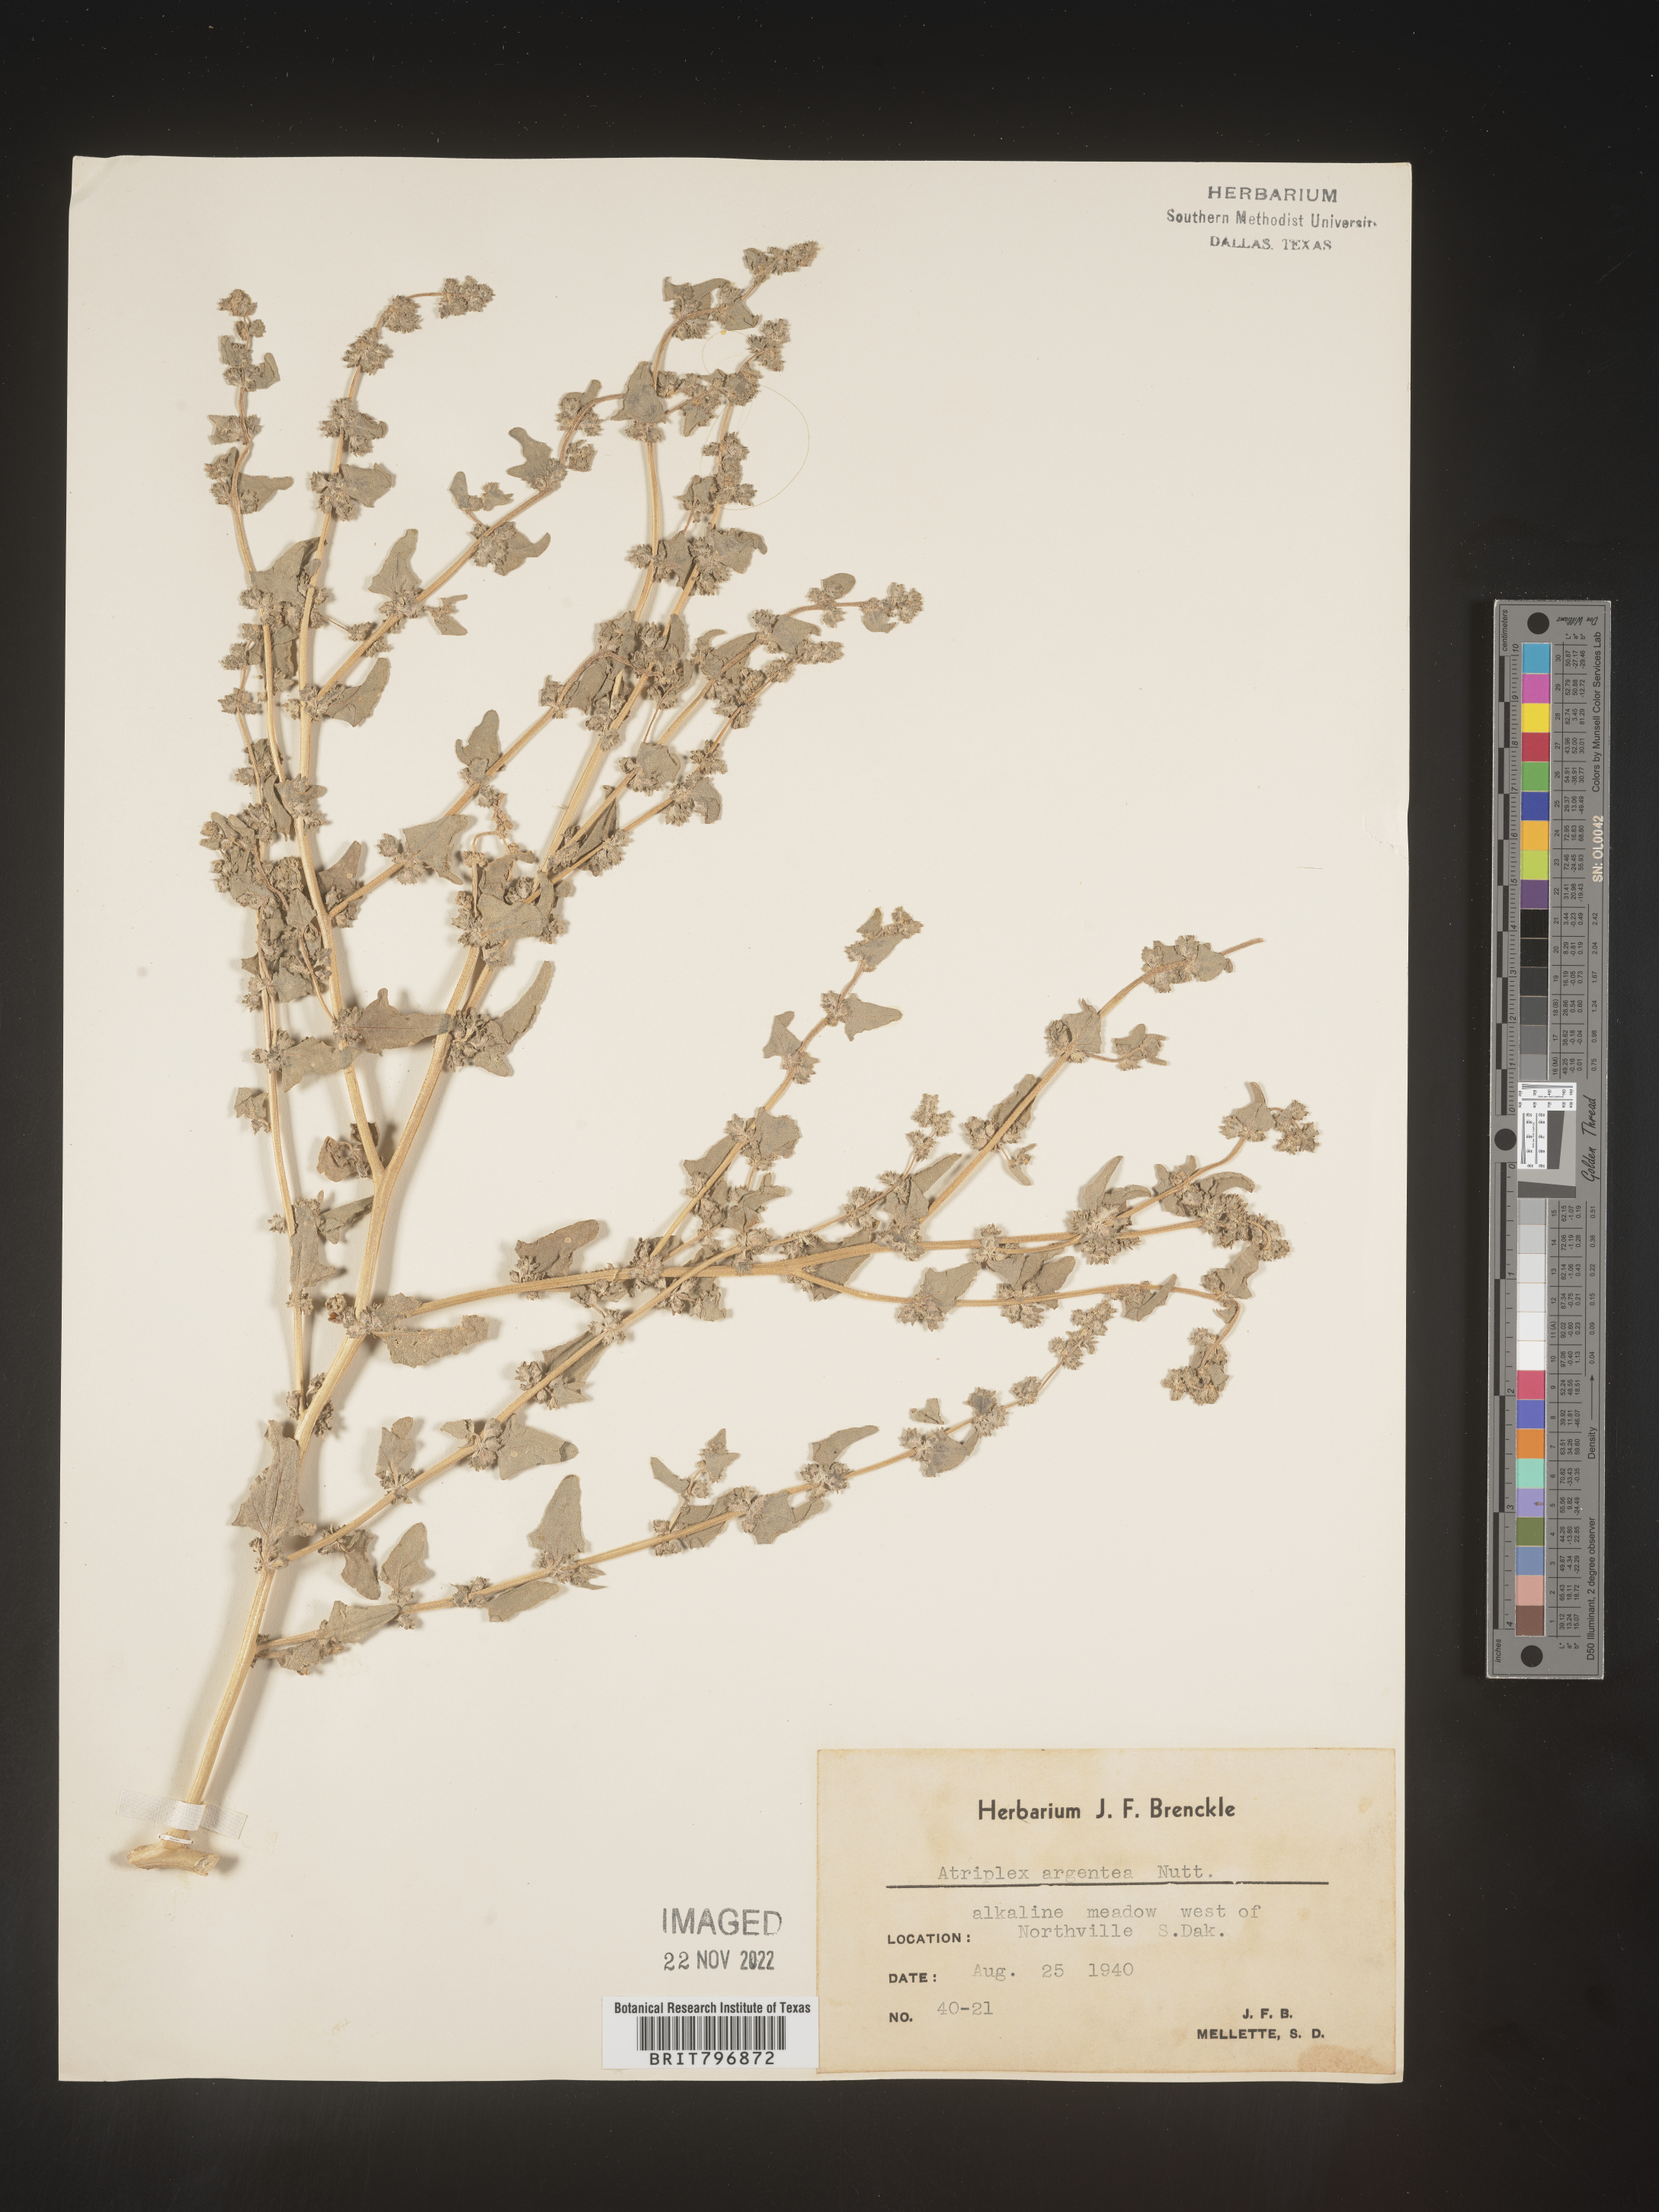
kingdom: Plantae
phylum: Tracheophyta
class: Magnoliopsida
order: Caryophyllales
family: Amaranthaceae
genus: Atriplex
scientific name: Atriplex argentea
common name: Silverscale
